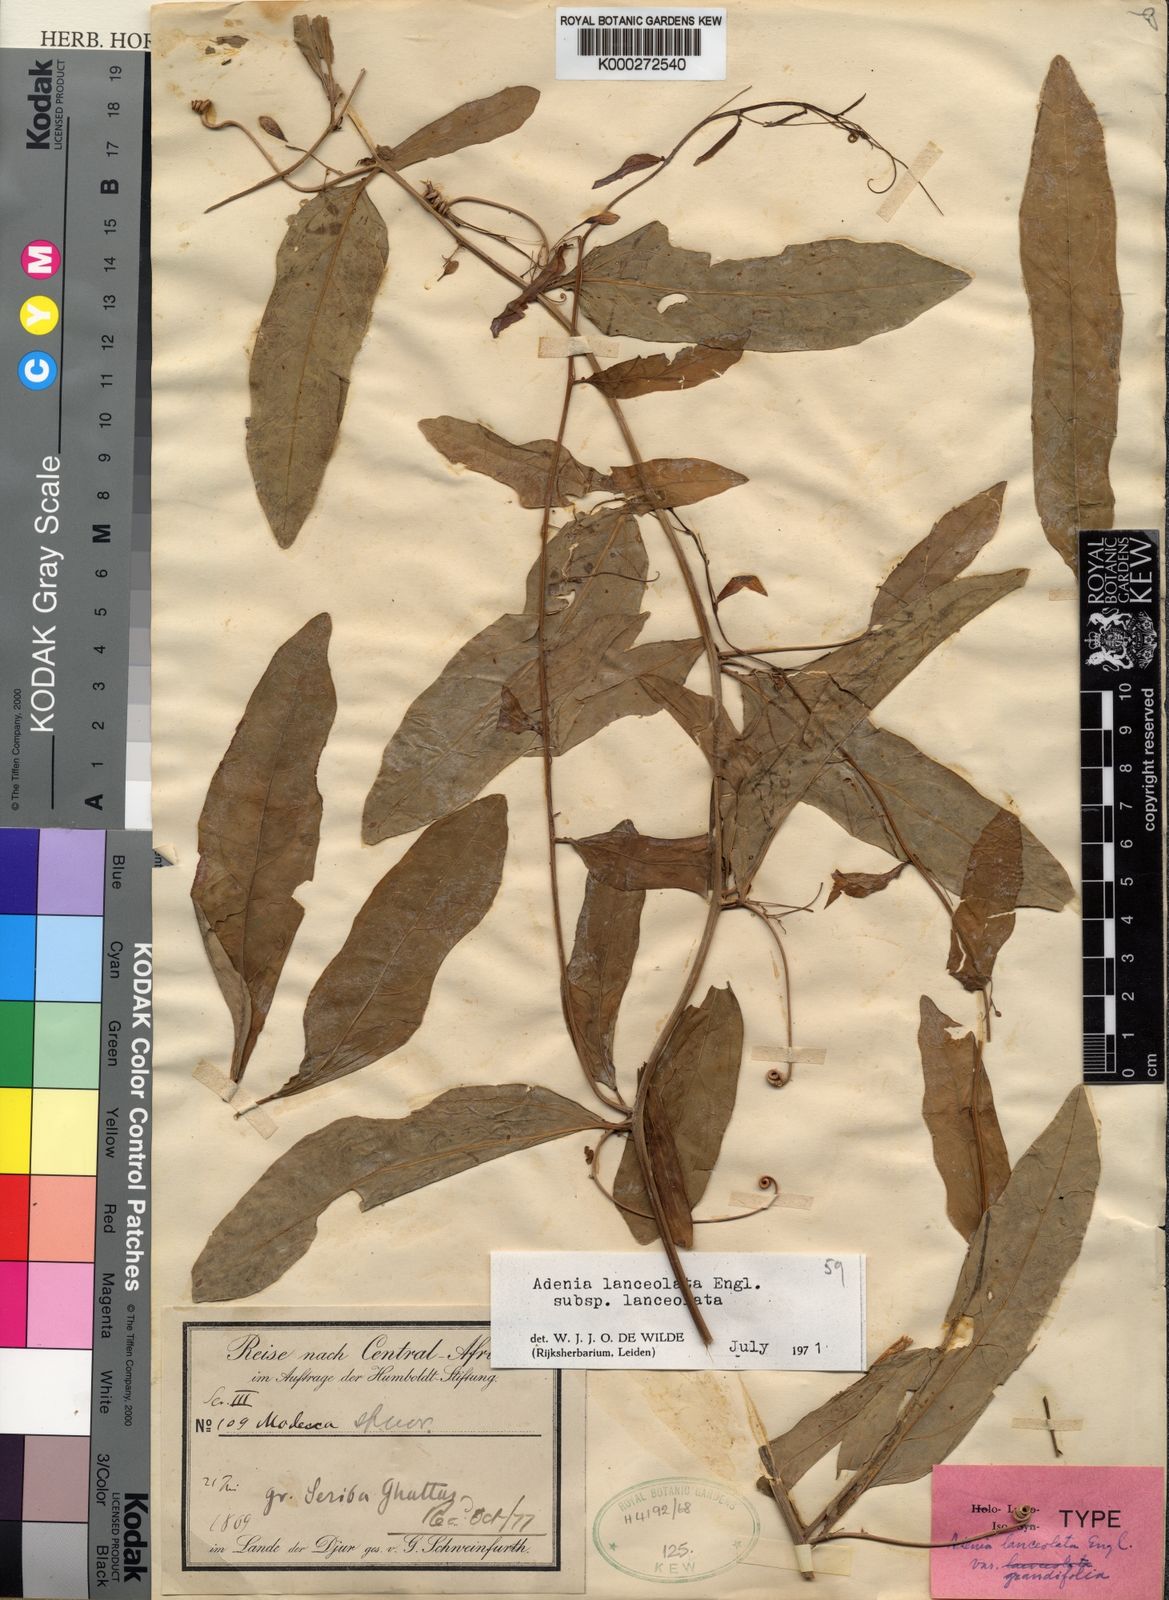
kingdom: Plantae
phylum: Tracheophyta
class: Magnoliopsida
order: Malpighiales
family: Passifloraceae
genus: Adenia
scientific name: Adenia lanceolata
